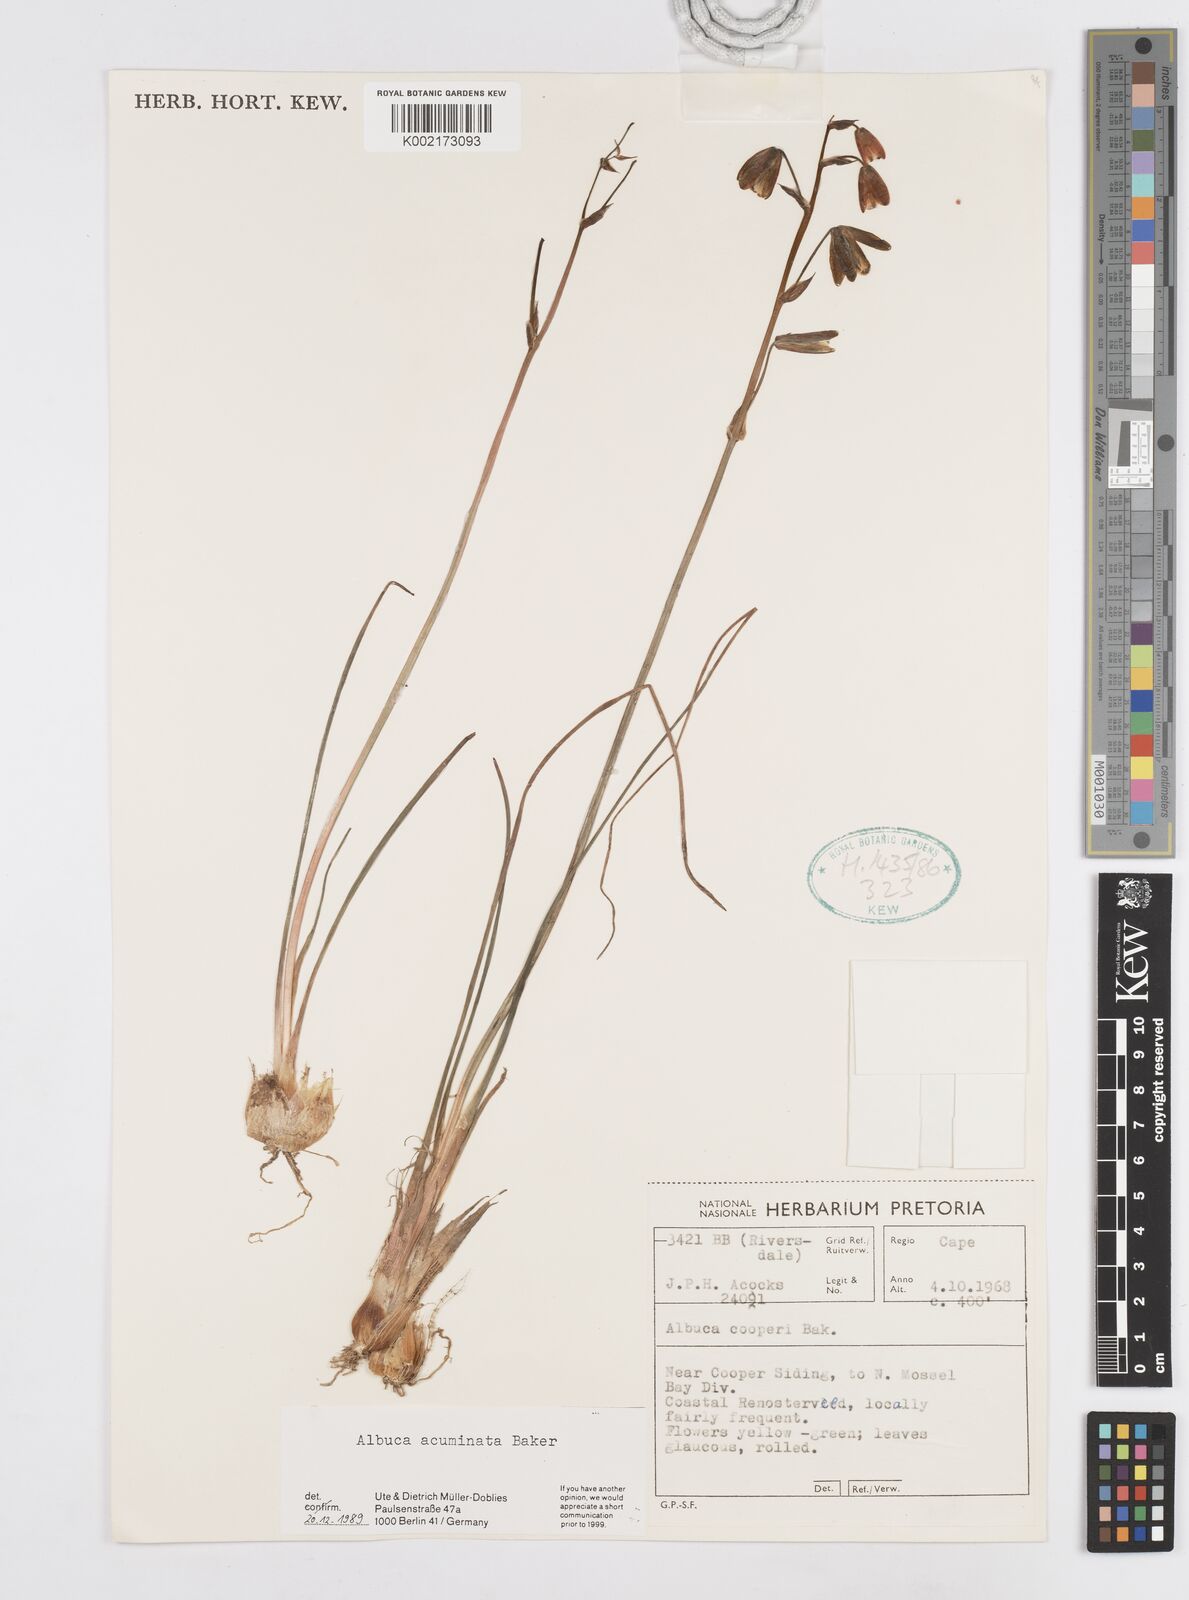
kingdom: Plantae
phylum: Tracheophyta
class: Liliopsida
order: Asparagales
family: Asparagaceae
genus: Albuca
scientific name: Albuca acuminata
